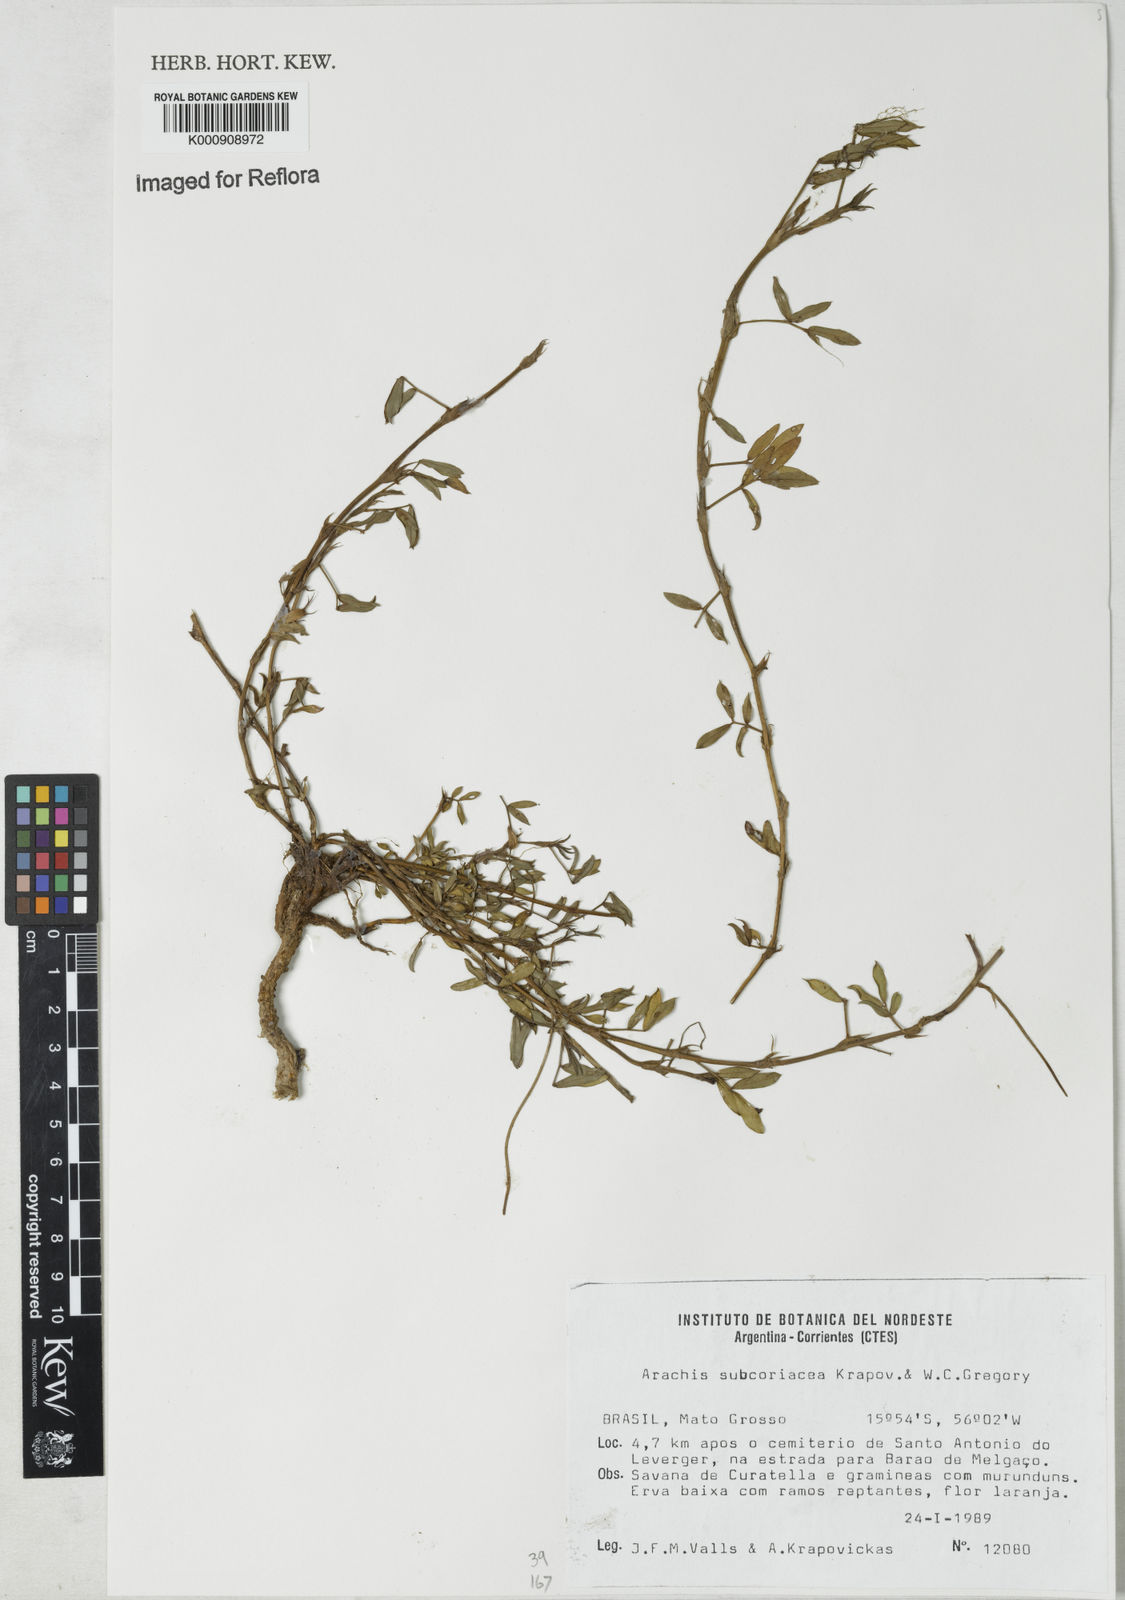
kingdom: Plantae
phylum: Tracheophyta
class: Magnoliopsida
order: Fabales
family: Fabaceae
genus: Arachis
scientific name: Arachis subcoriacea
